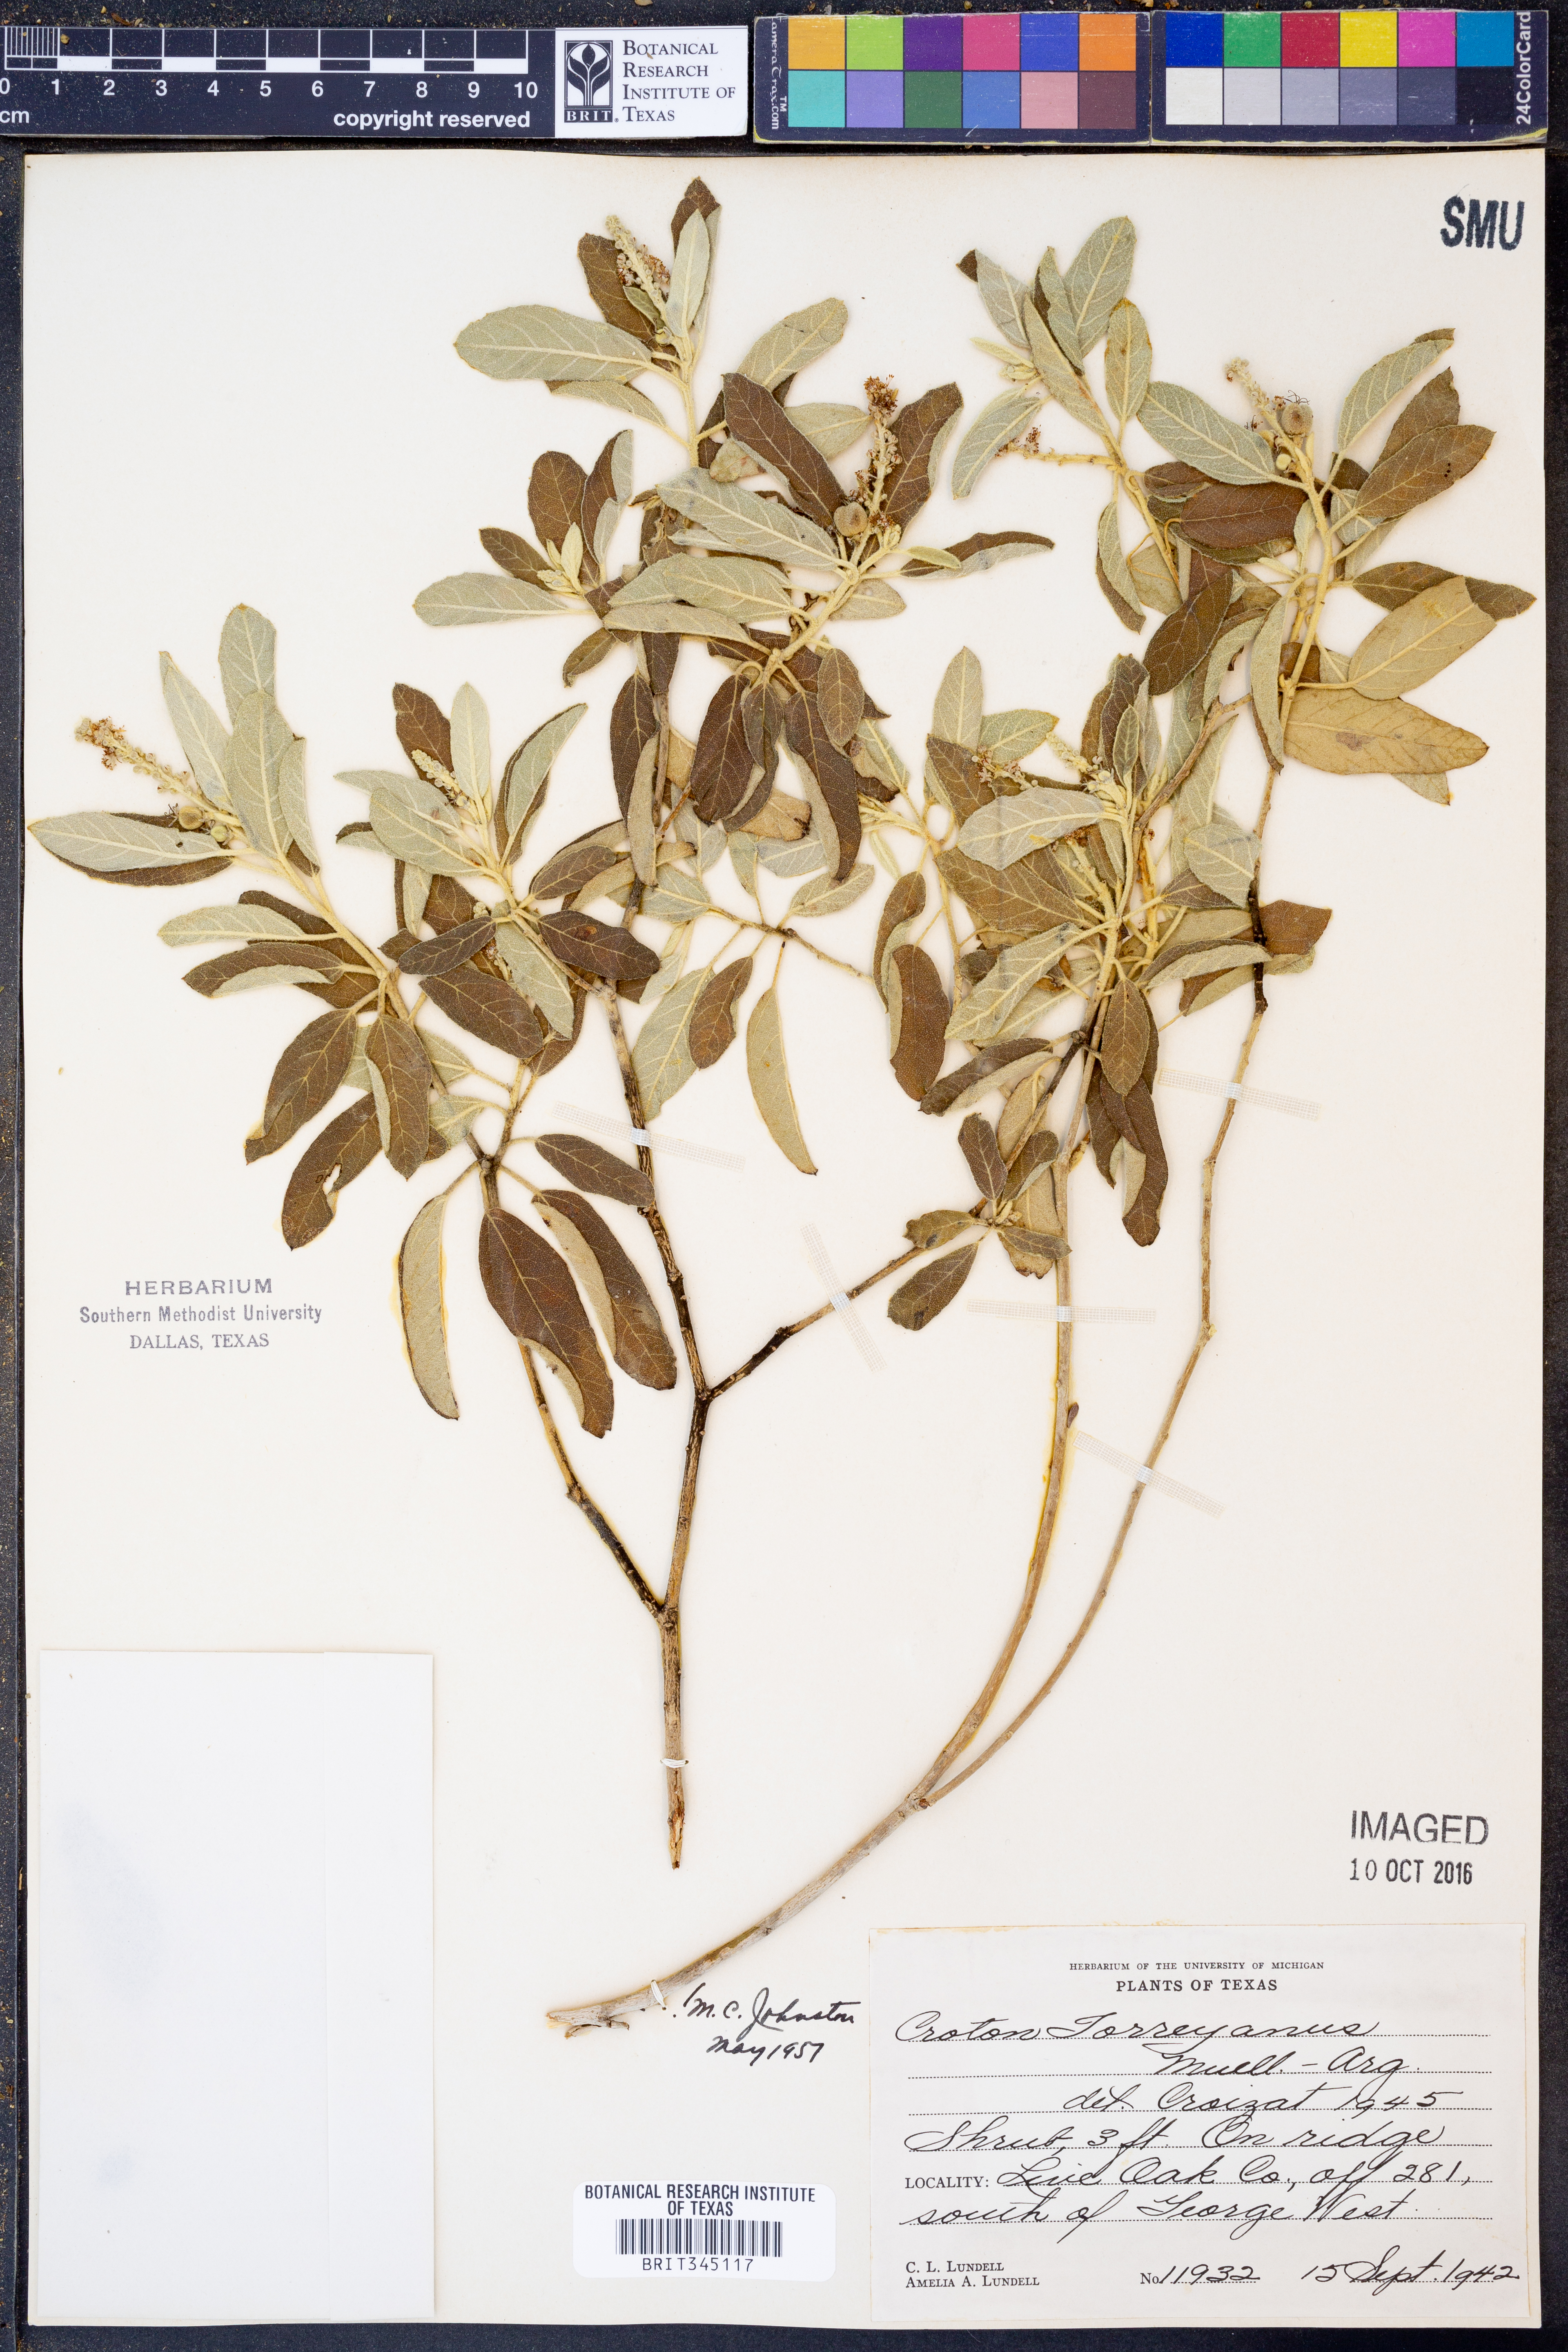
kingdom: Plantae
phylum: Tracheophyta
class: Magnoliopsida
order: Malpighiales
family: Euphorbiaceae
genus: Croton
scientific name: Croton incanus
